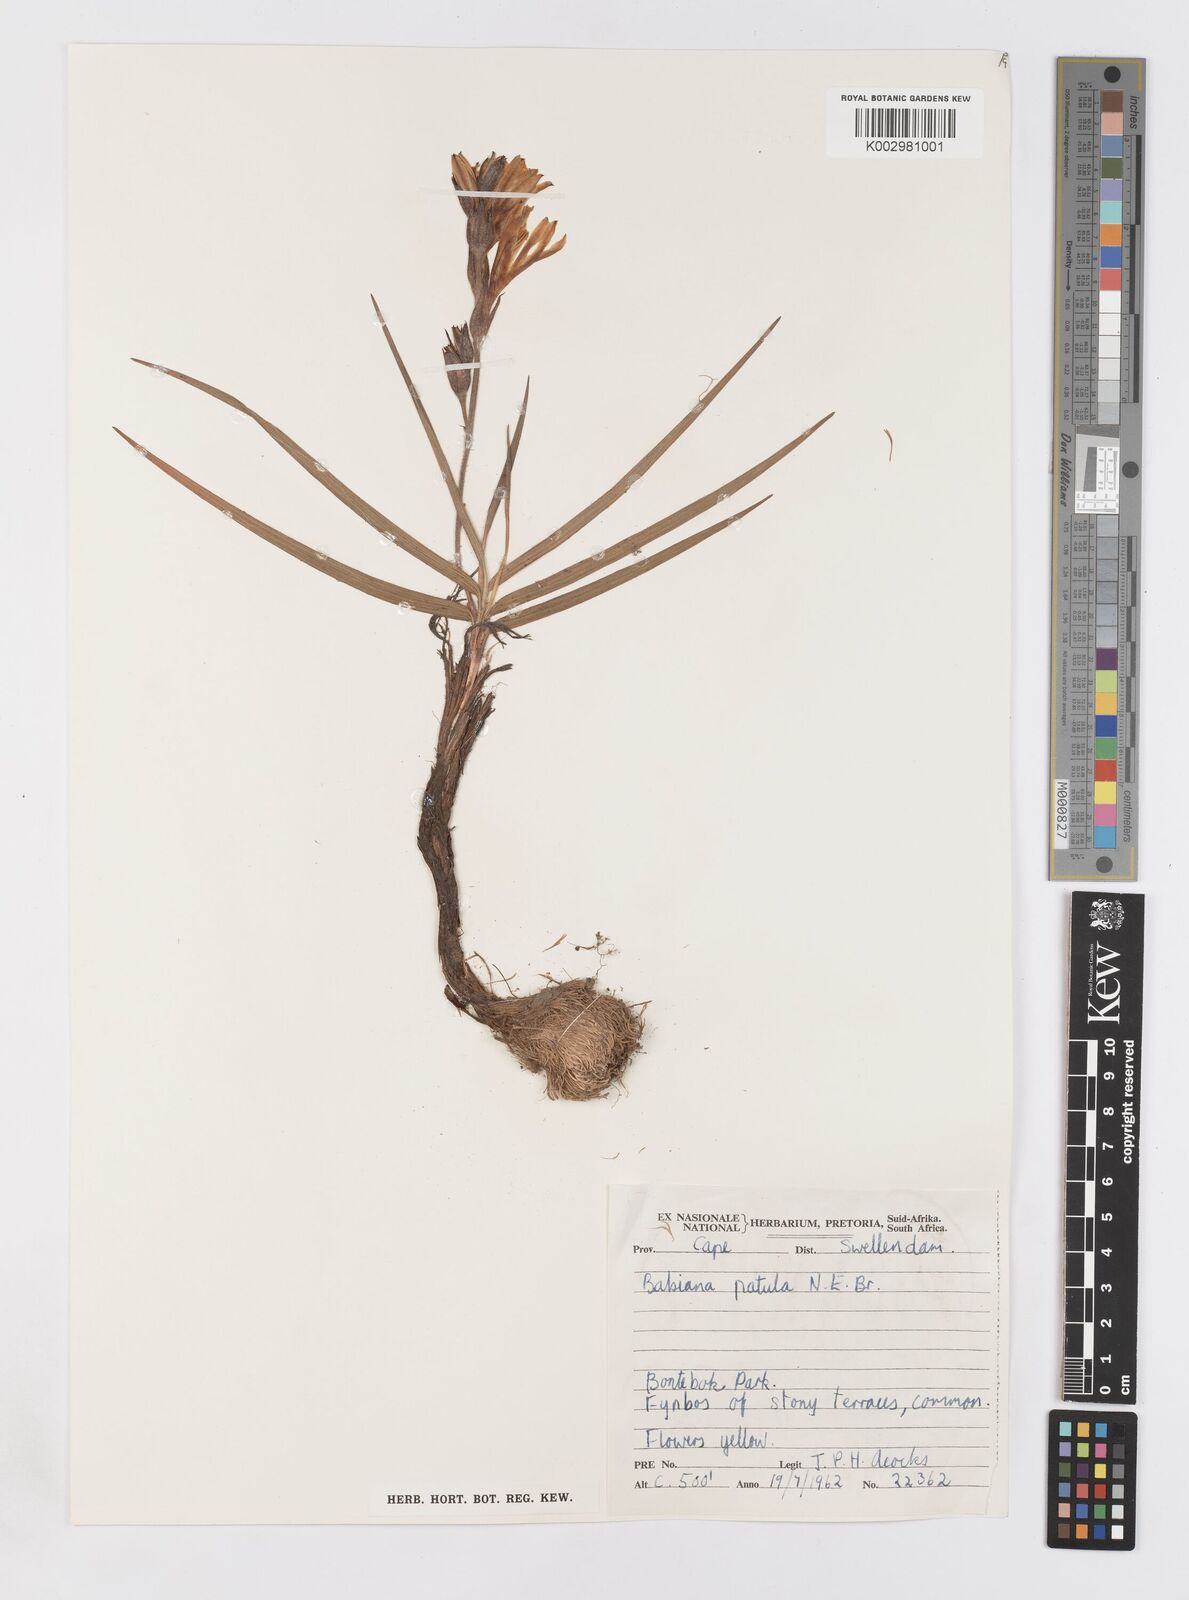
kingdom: Plantae
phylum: Tracheophyta
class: Liliopsida
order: Asparagales
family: Iridaceae
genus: Babiana
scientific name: Babiana patula
